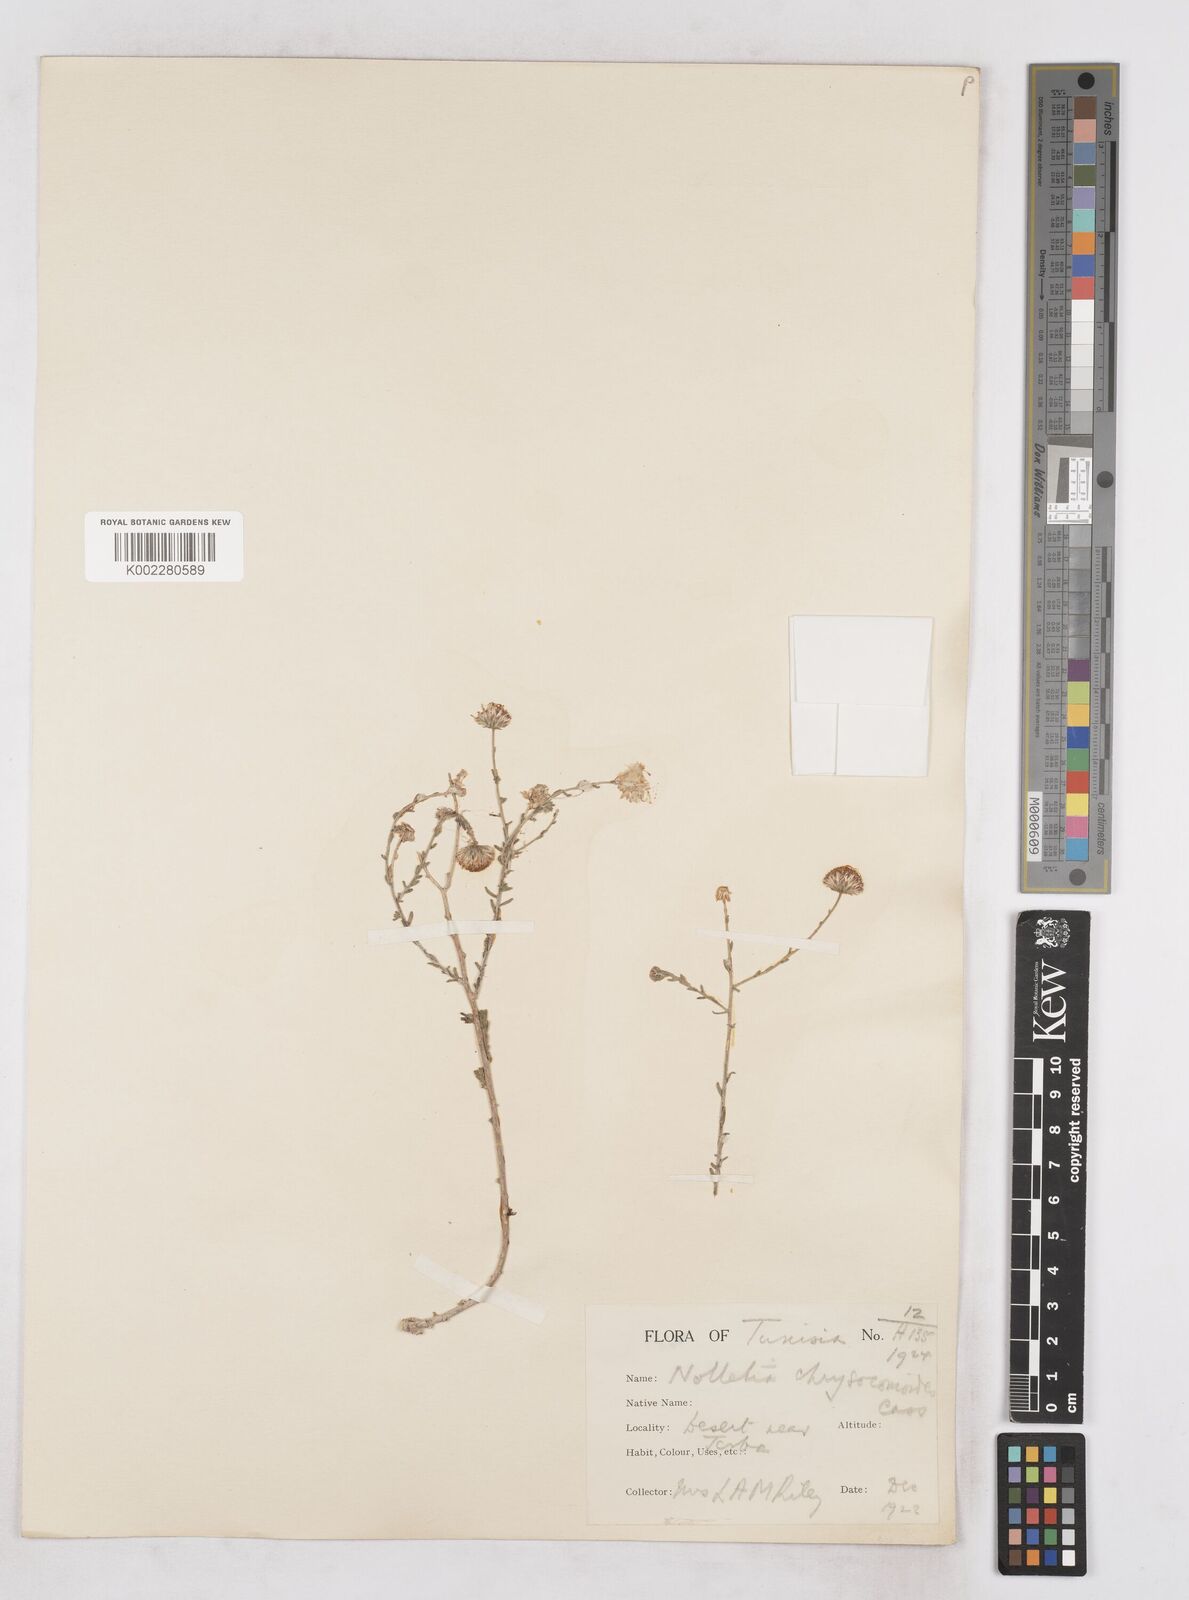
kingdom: Plantae
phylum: Tracheophyta
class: Magnoliopsida
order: Asterales
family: Asteraceae
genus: Nolletia
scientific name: Nolletia chrysocomoides
